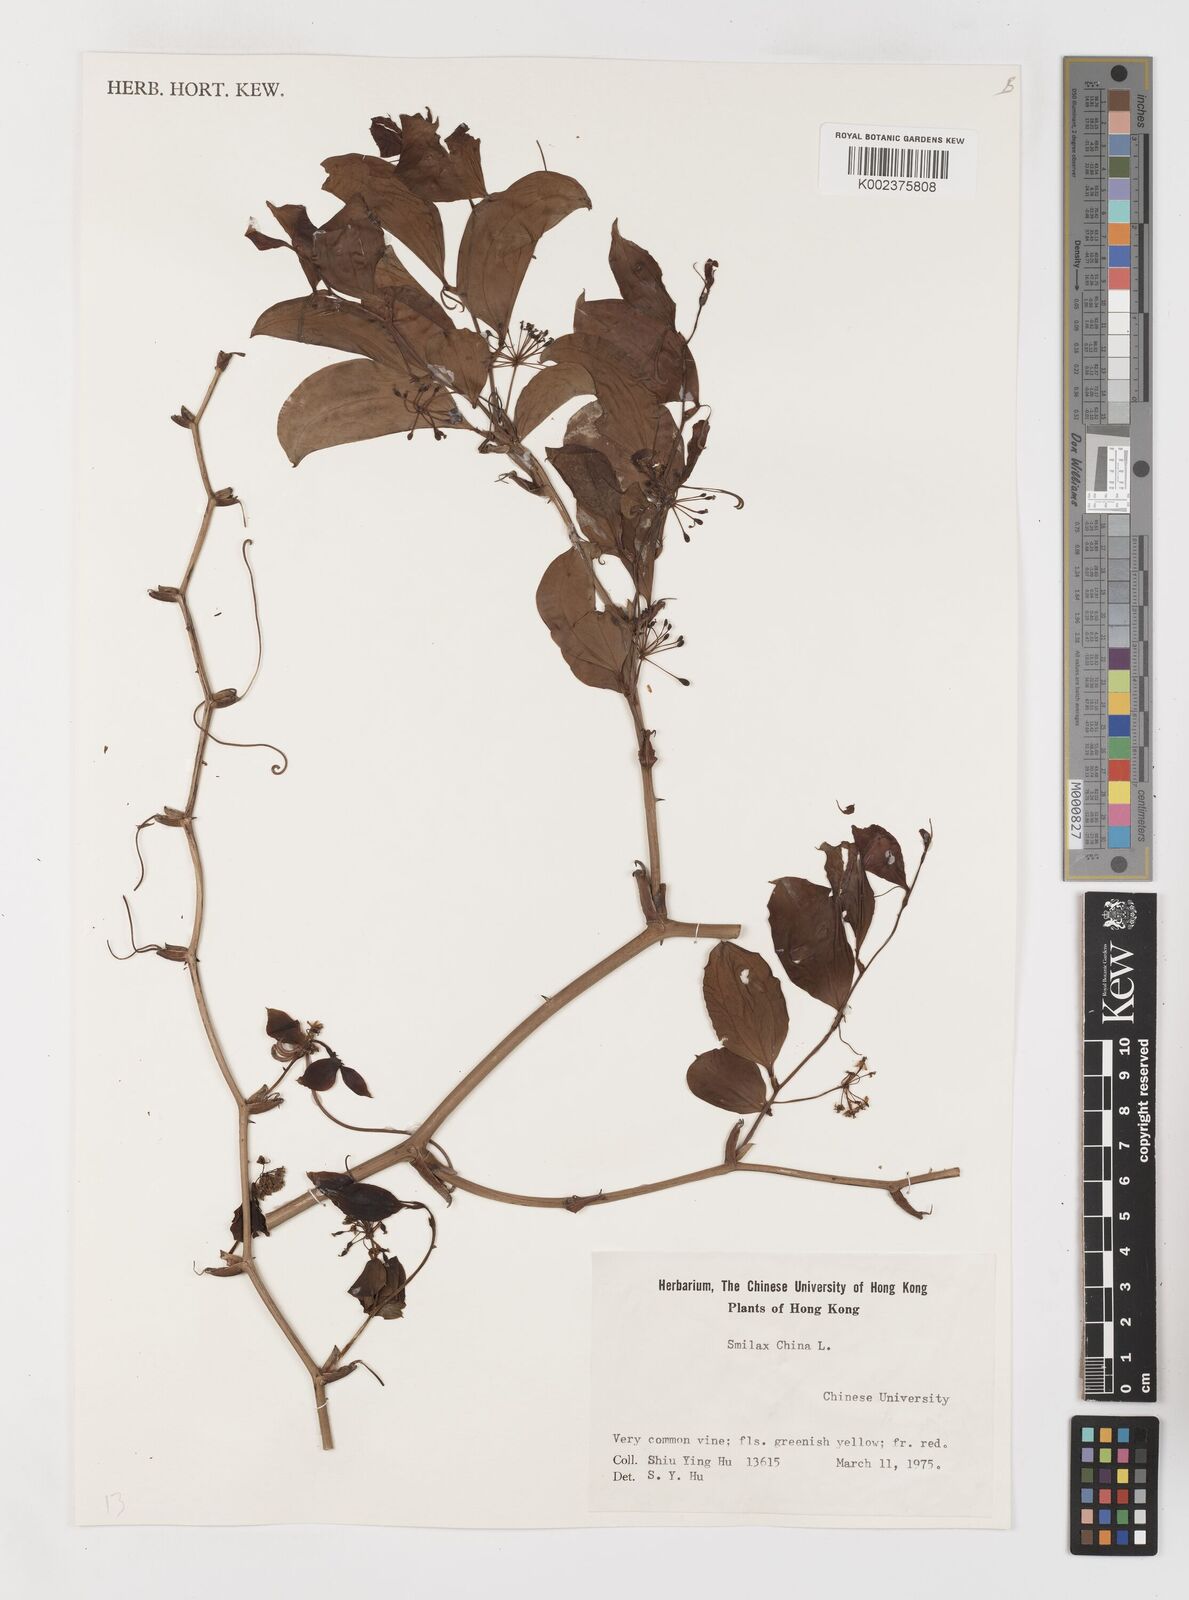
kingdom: Plantae
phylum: Tracheophyta
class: Liliopsida
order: Liliales
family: Smilacaceae
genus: Smilax
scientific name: Smilax china
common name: Chinaroot
